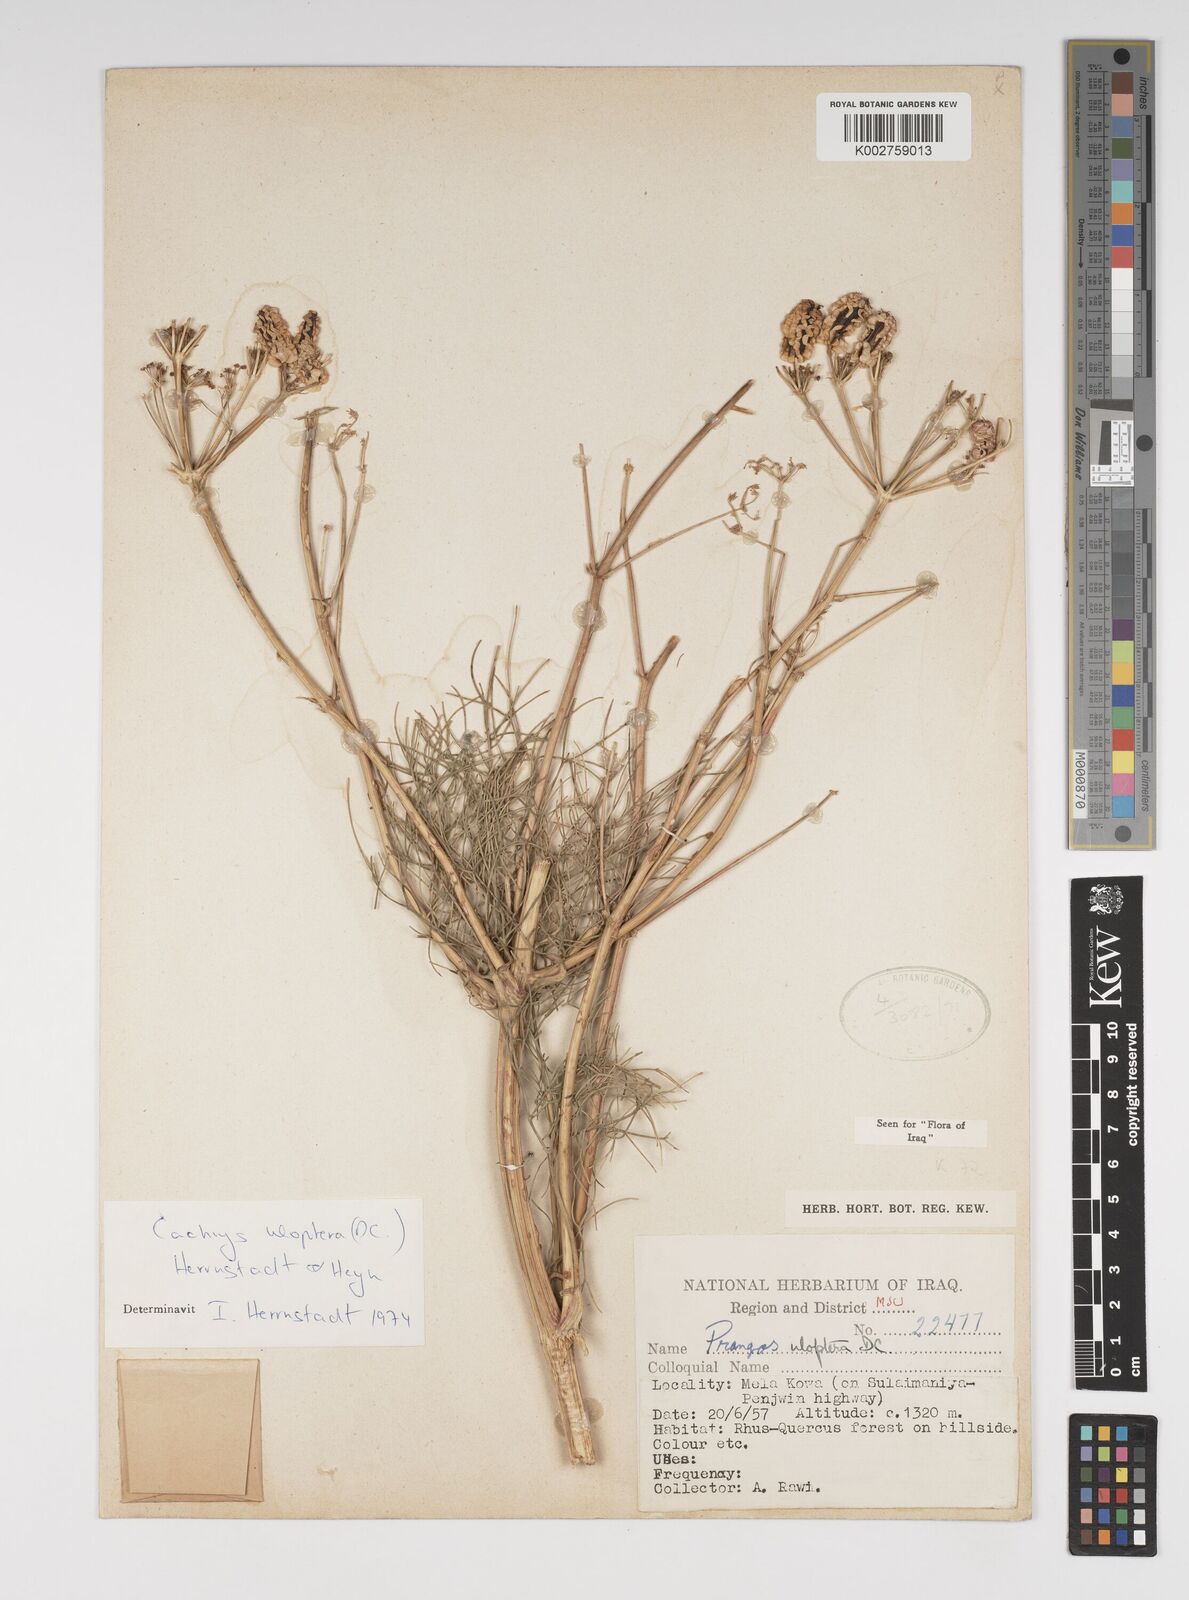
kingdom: Plantae
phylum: Tracheophyta
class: Magnoliopsida
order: Apiales
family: Apiaceae
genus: Prangos
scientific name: Prangos uloptera
